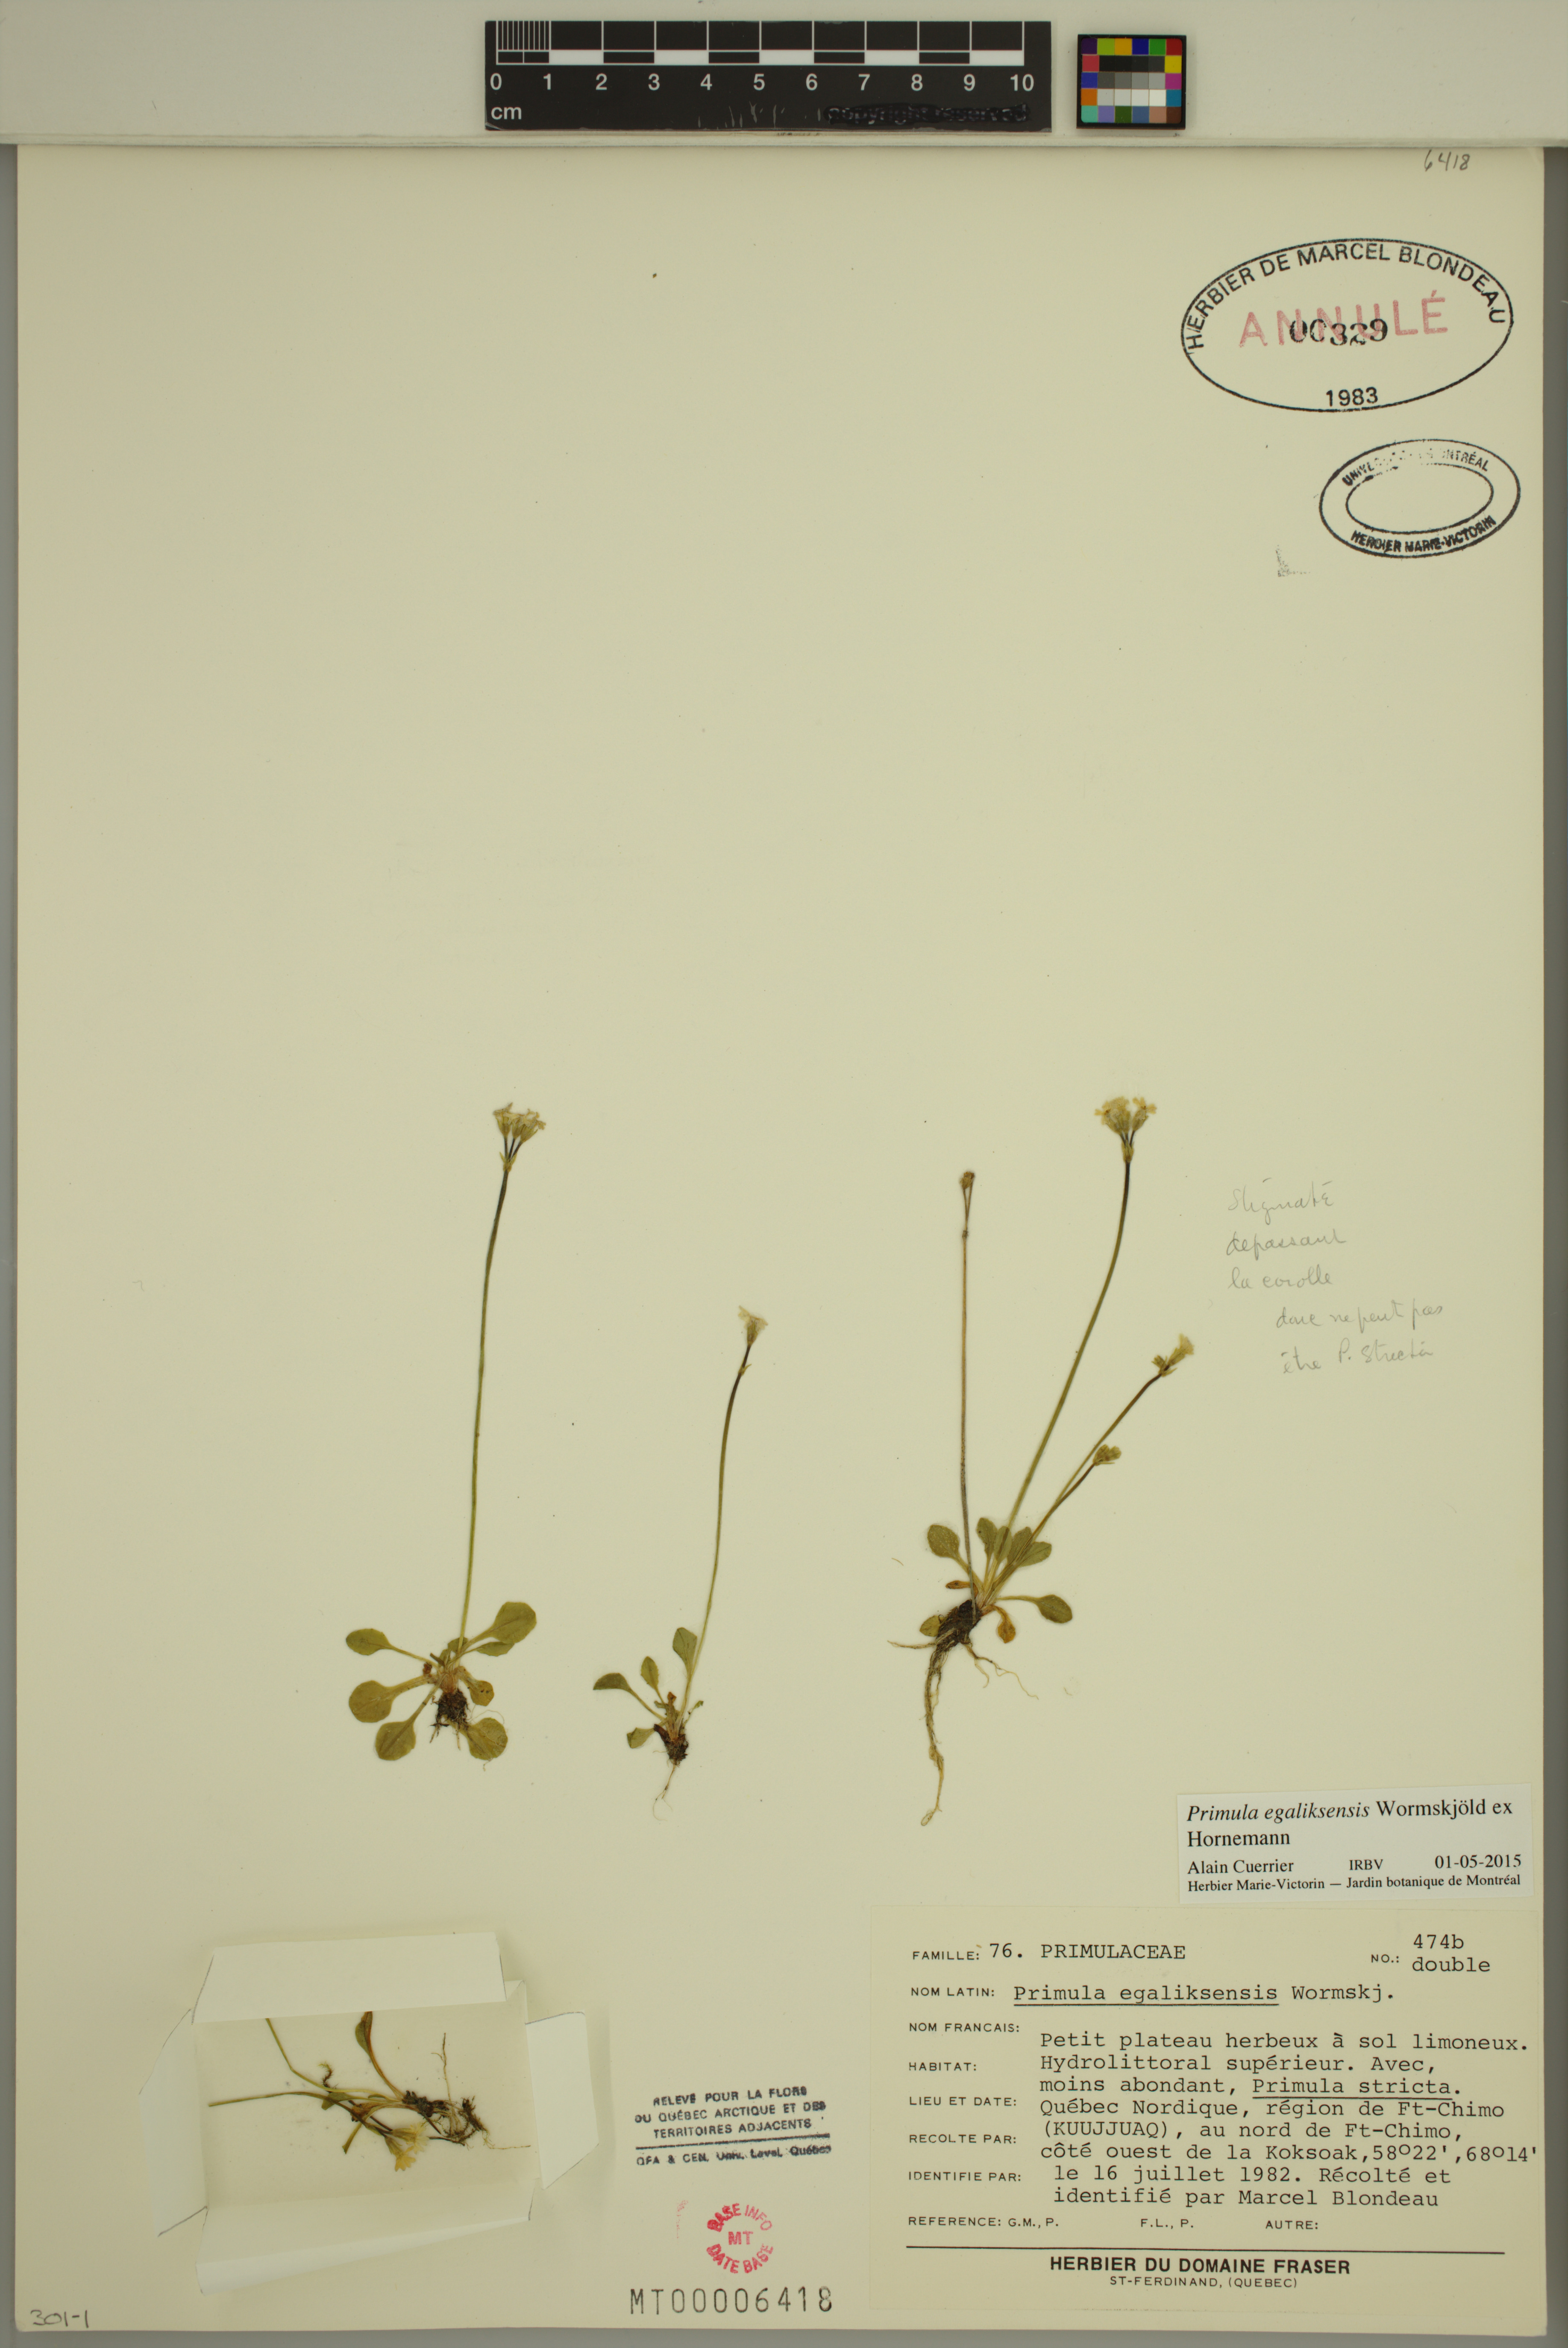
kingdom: Plantae
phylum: Tracheophyta
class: Magnoliopsida
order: Ericales
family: Primulaceae
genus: Primula
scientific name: Primula egaliksensis
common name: Greenland primrose
